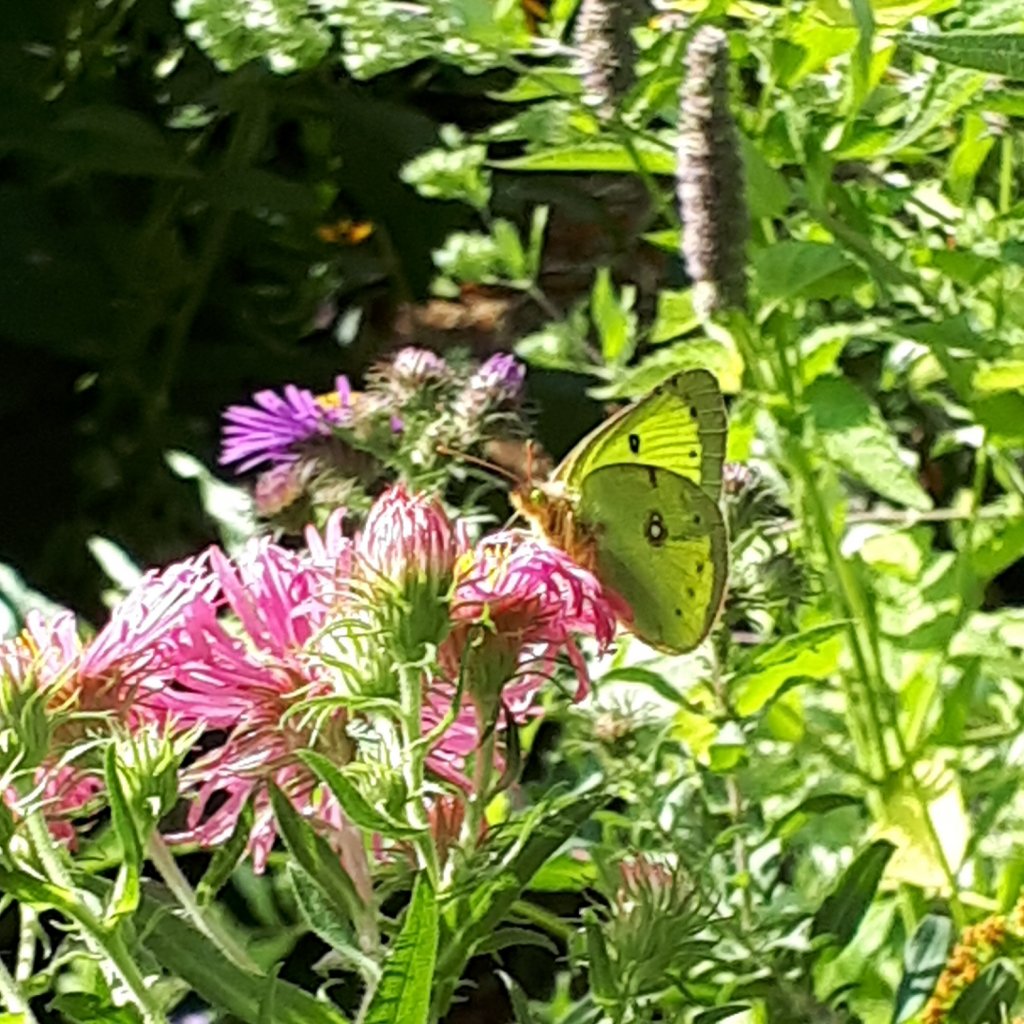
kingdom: Animalia
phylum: Arthropoda
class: Insecta
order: Lepidoptera
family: Pieridae
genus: Colias
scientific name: Colias philodice
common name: Clouded Sulphur
